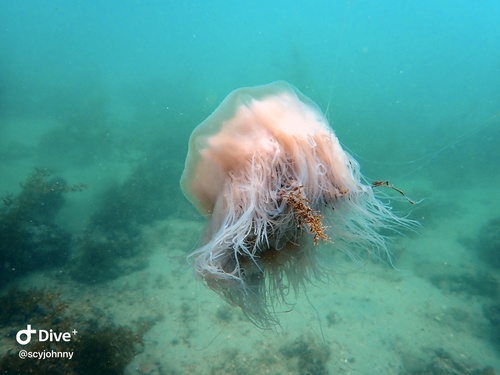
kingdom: Animalia
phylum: Cnidaria
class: Scyphozoa
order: Semaeostomeae
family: Cyaneidae
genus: Cyanea
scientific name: Cyanea nozakii
